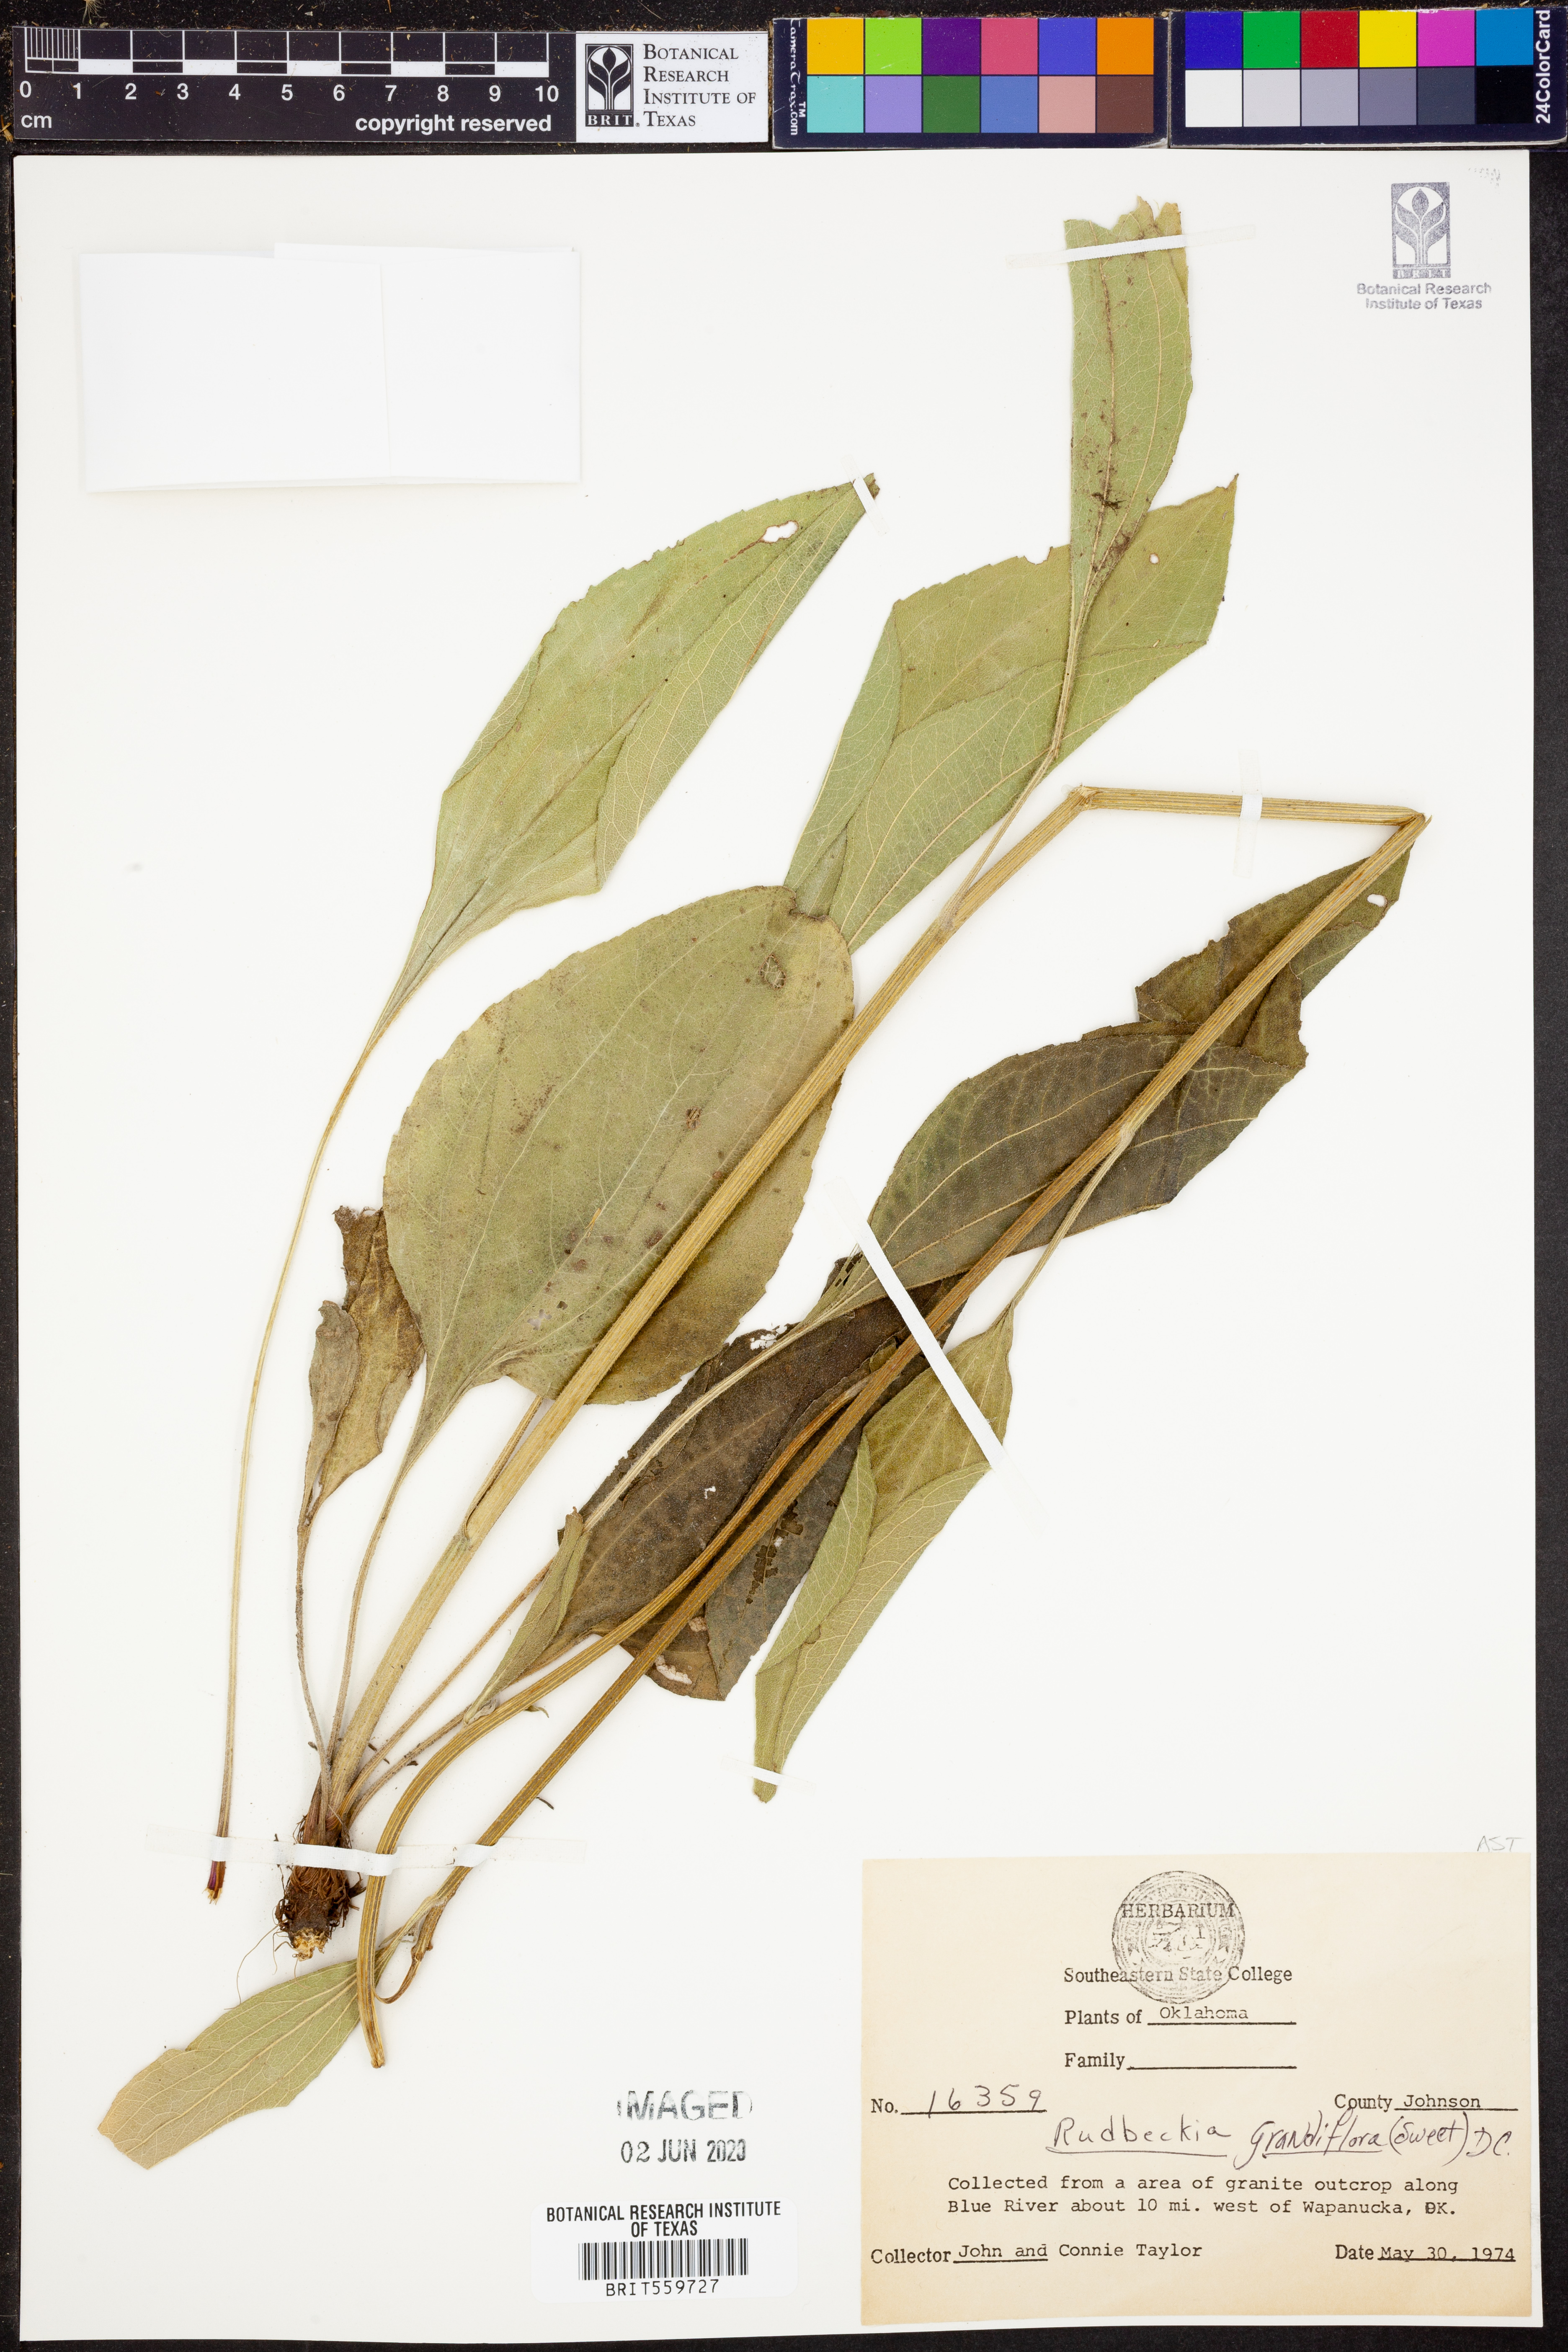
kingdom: Plantae
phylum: Tracheophyta
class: Magnoliopsida
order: Asterales
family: Asteraceae
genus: Rudbeckia
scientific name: Rudbeckia grandiflora
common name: Large-flowered coneflower
